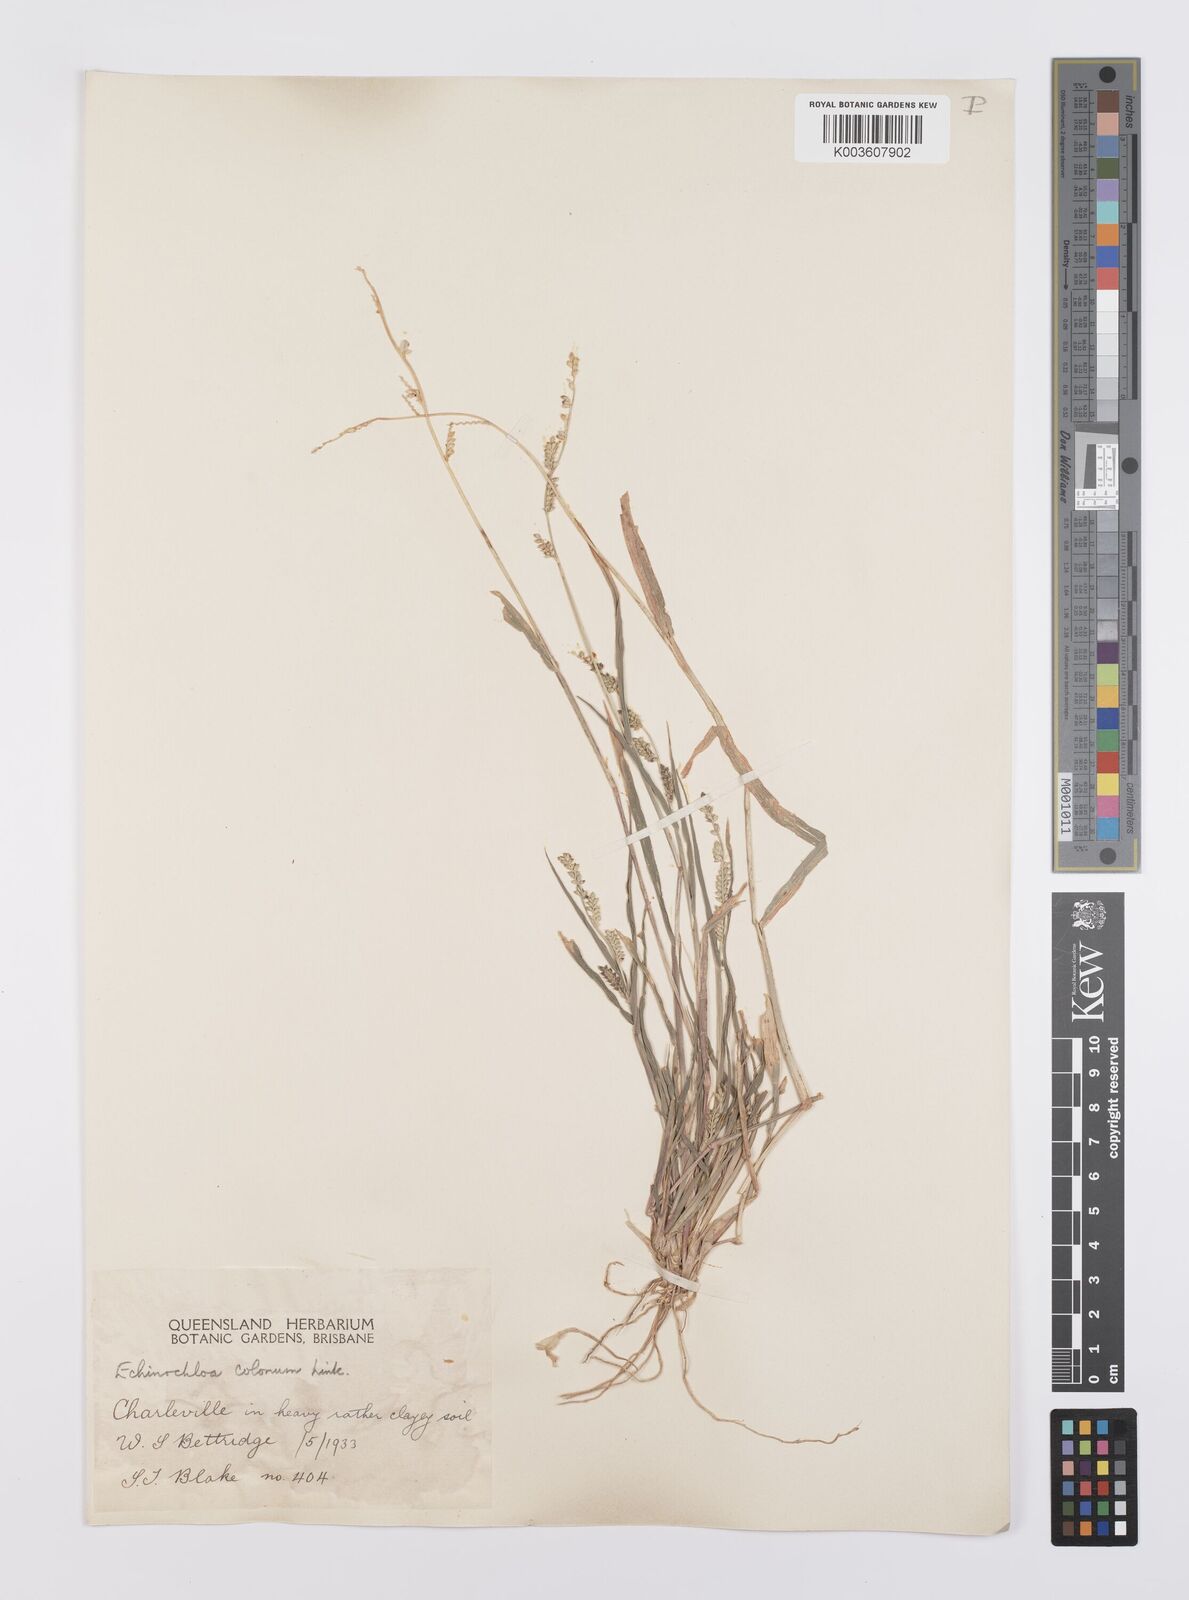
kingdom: Plantae
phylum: Tracheophyta
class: Liliopsida
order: Poales
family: Poaceae
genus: Echinochloa
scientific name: Echinochloa colonum
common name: Jungle rice
